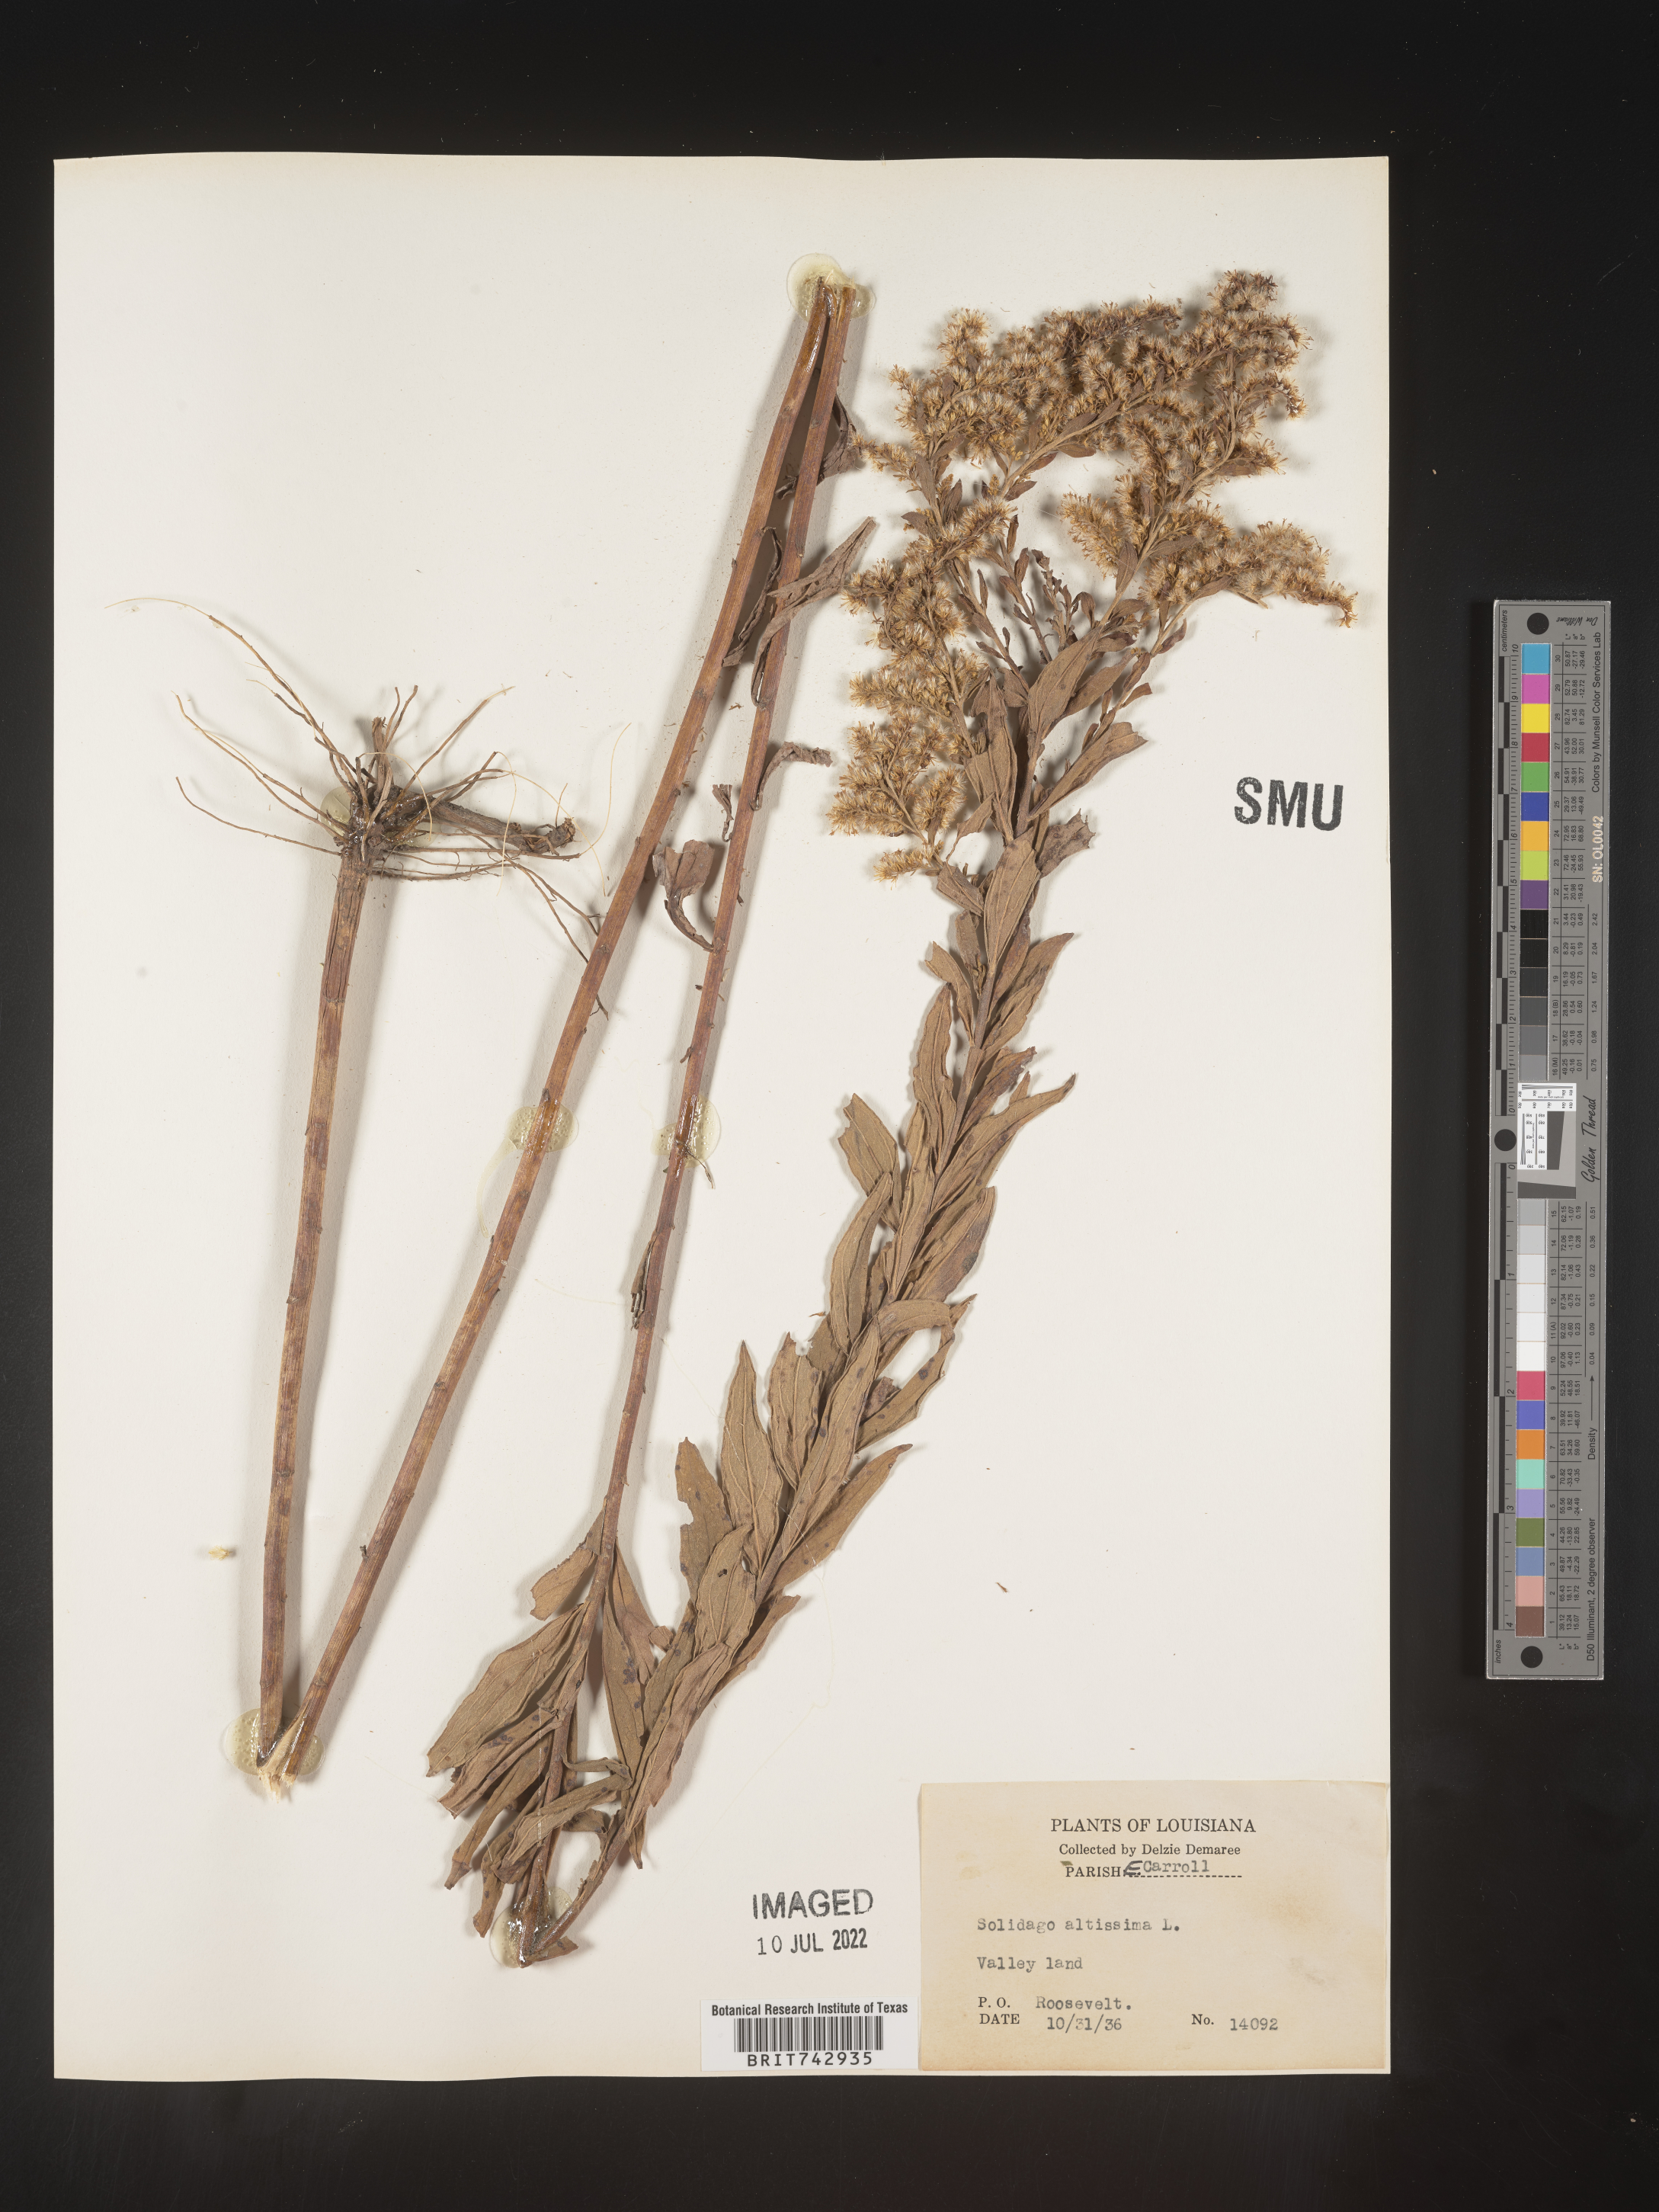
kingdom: Plantae
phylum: Tracheophyta
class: Magnoliopsida
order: Asterales
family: Asteraceae
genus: Solidago
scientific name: Solidago altissima
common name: Late goldenrod
